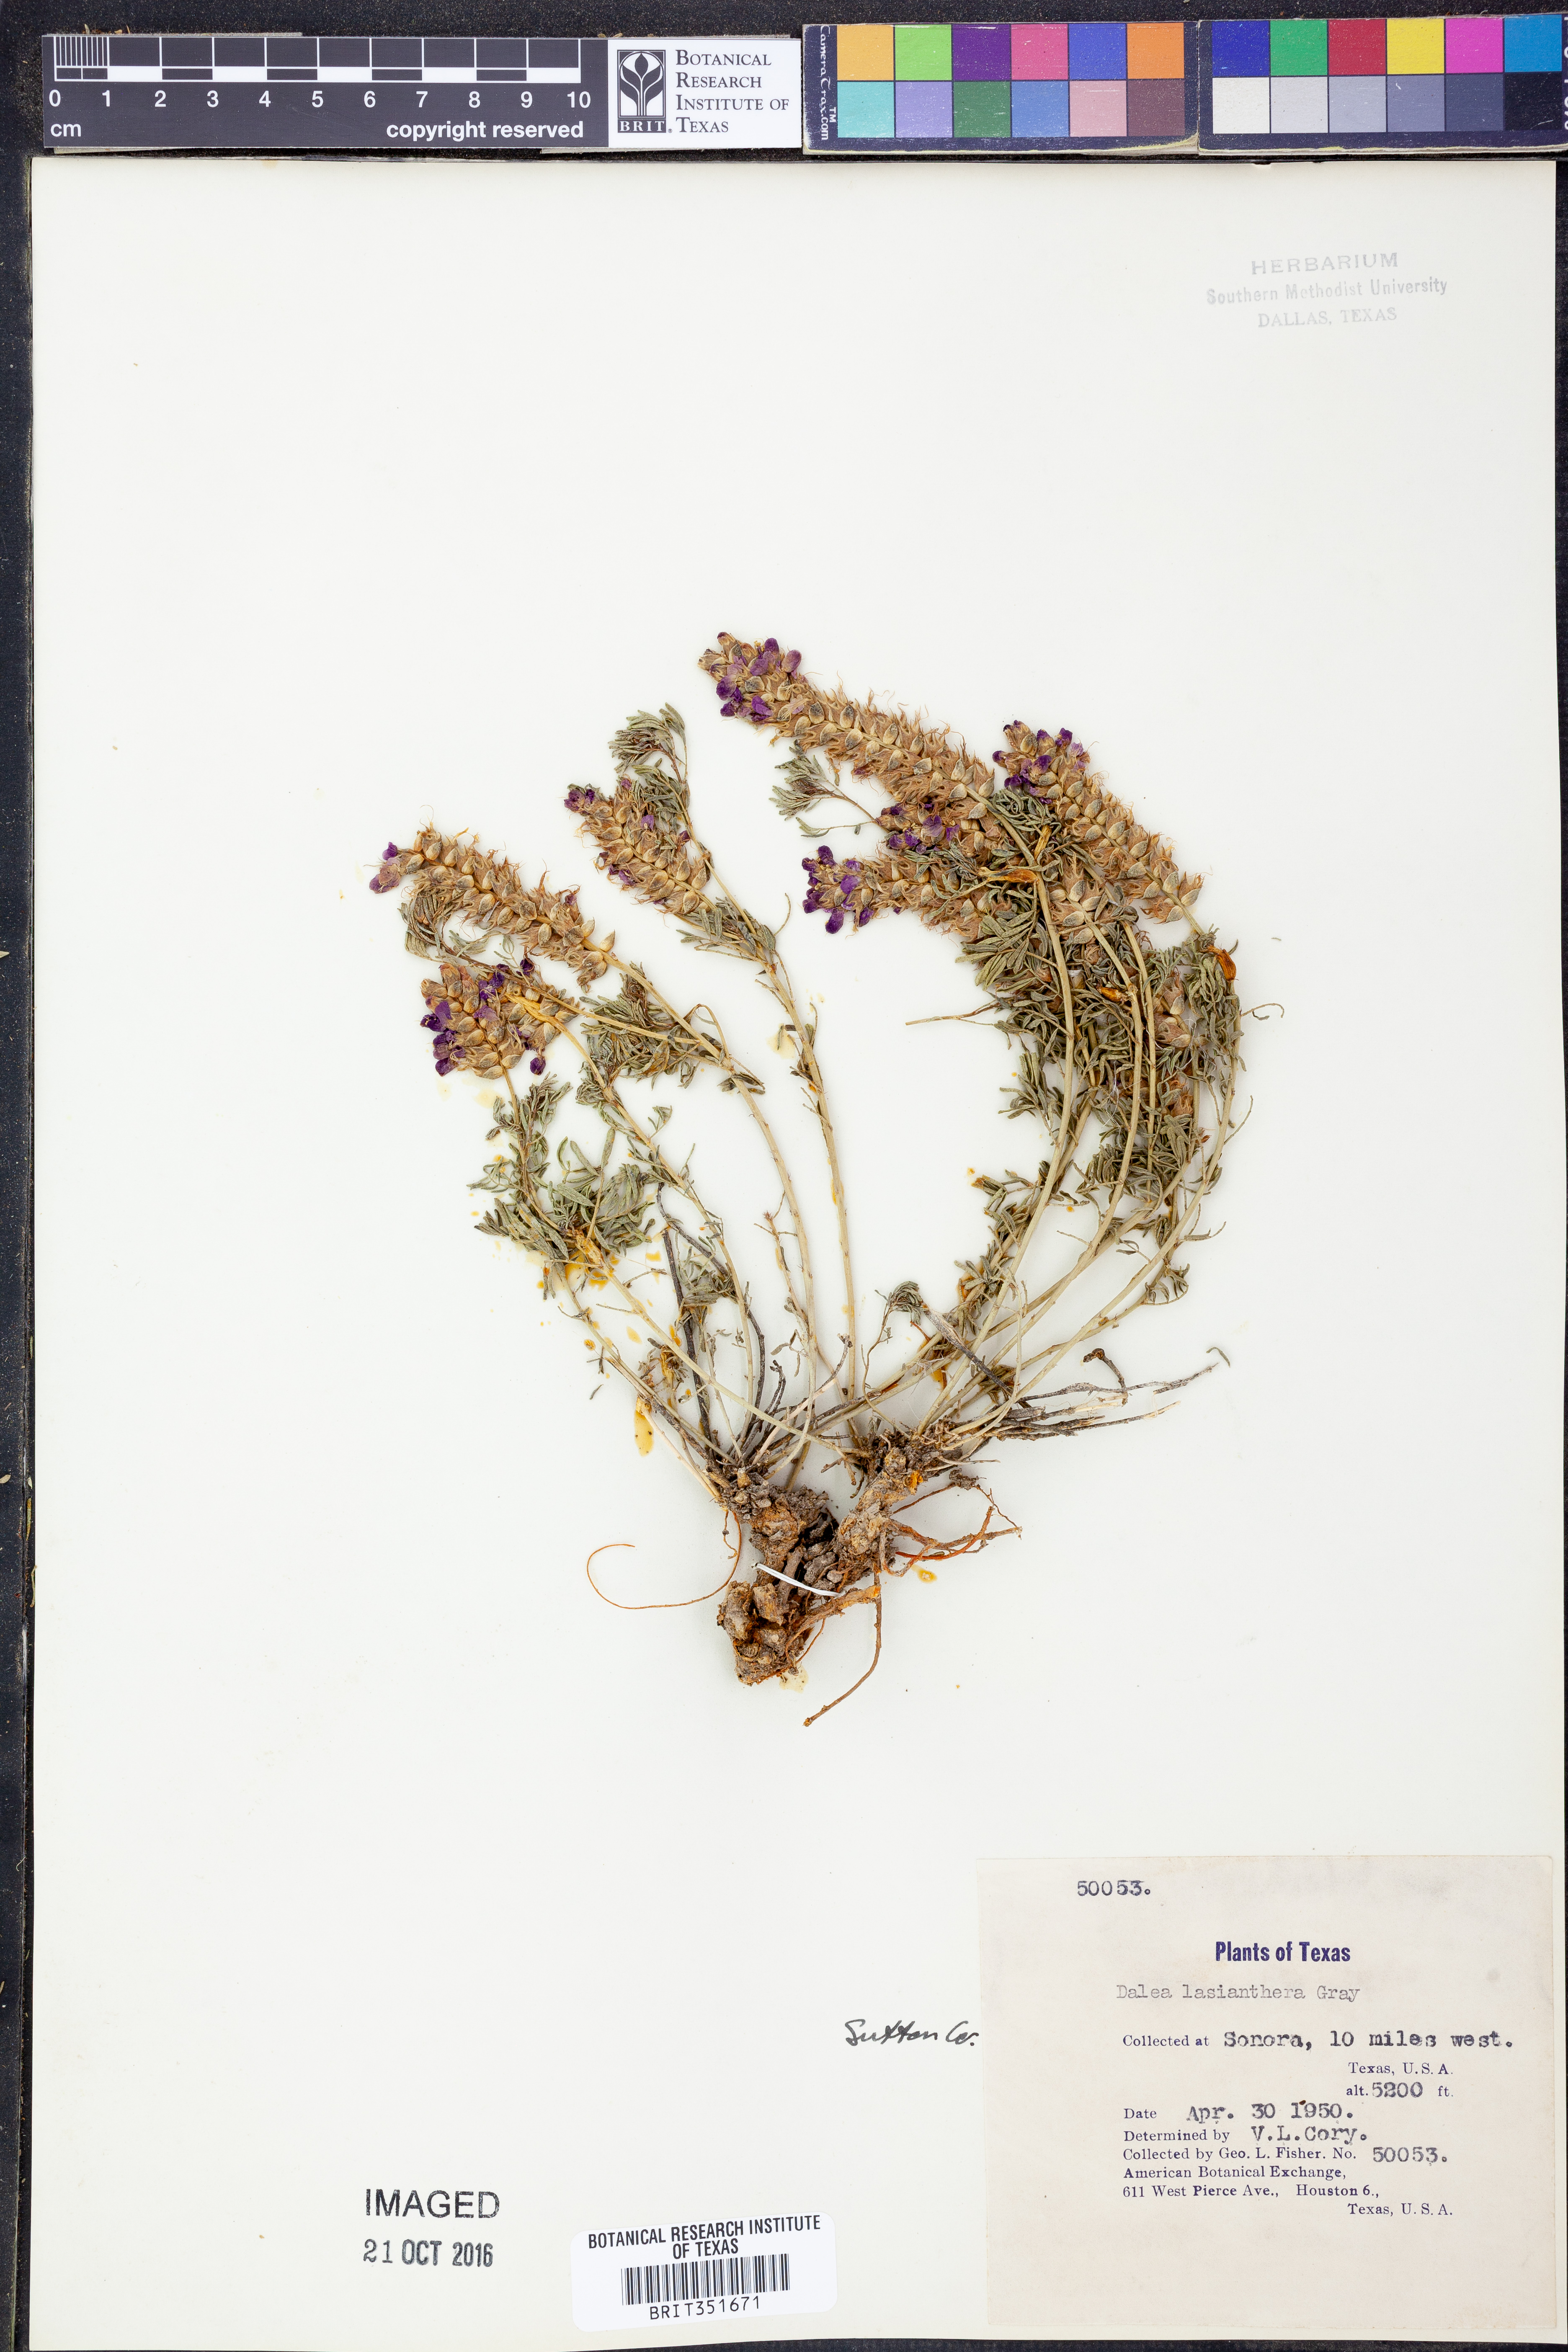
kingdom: Plantae
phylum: Tracheophyta
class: Magnoliopsida
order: Fabales
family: Fabaceae
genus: Dalea
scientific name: Dalea lasiathera
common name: Purple prairie-clover
